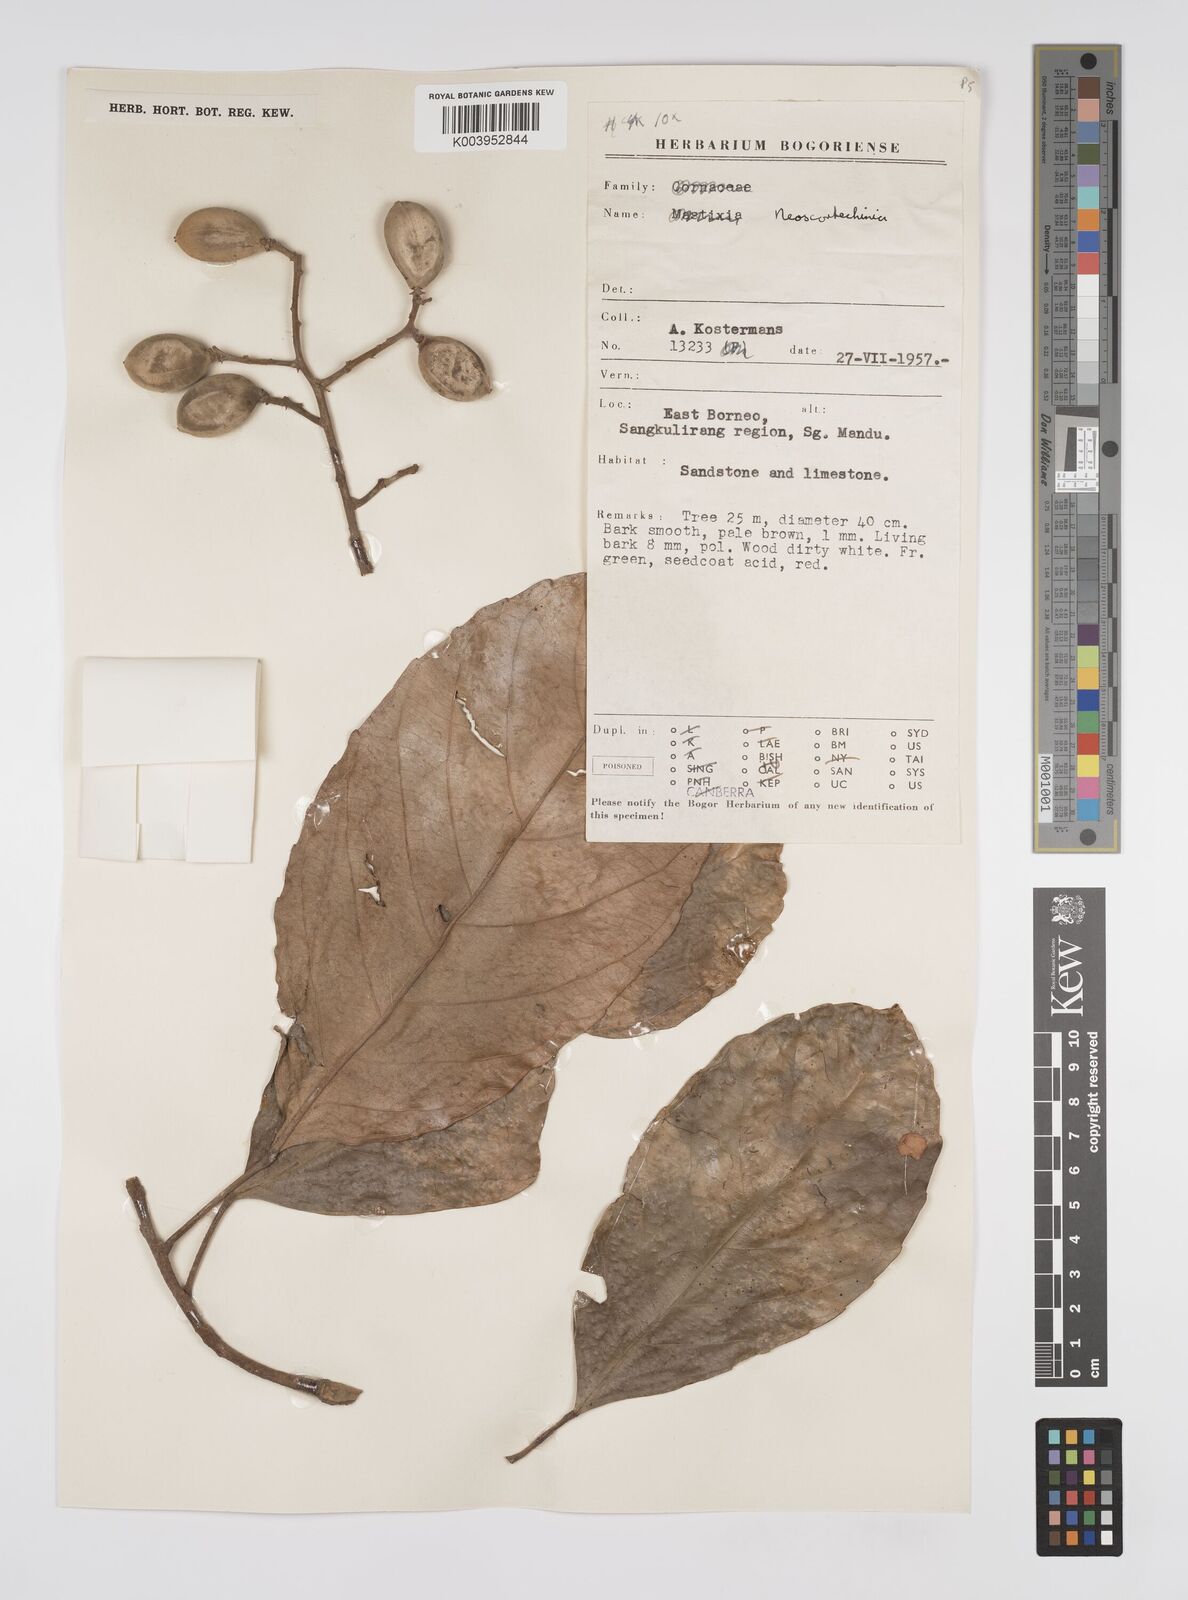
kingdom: Plantae
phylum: Tracheophyta
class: Magnoliopsida
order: Malpighiales
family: Euphorbiaceae
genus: Neoscortechinia
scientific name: Neoscortechinia nicobarica
